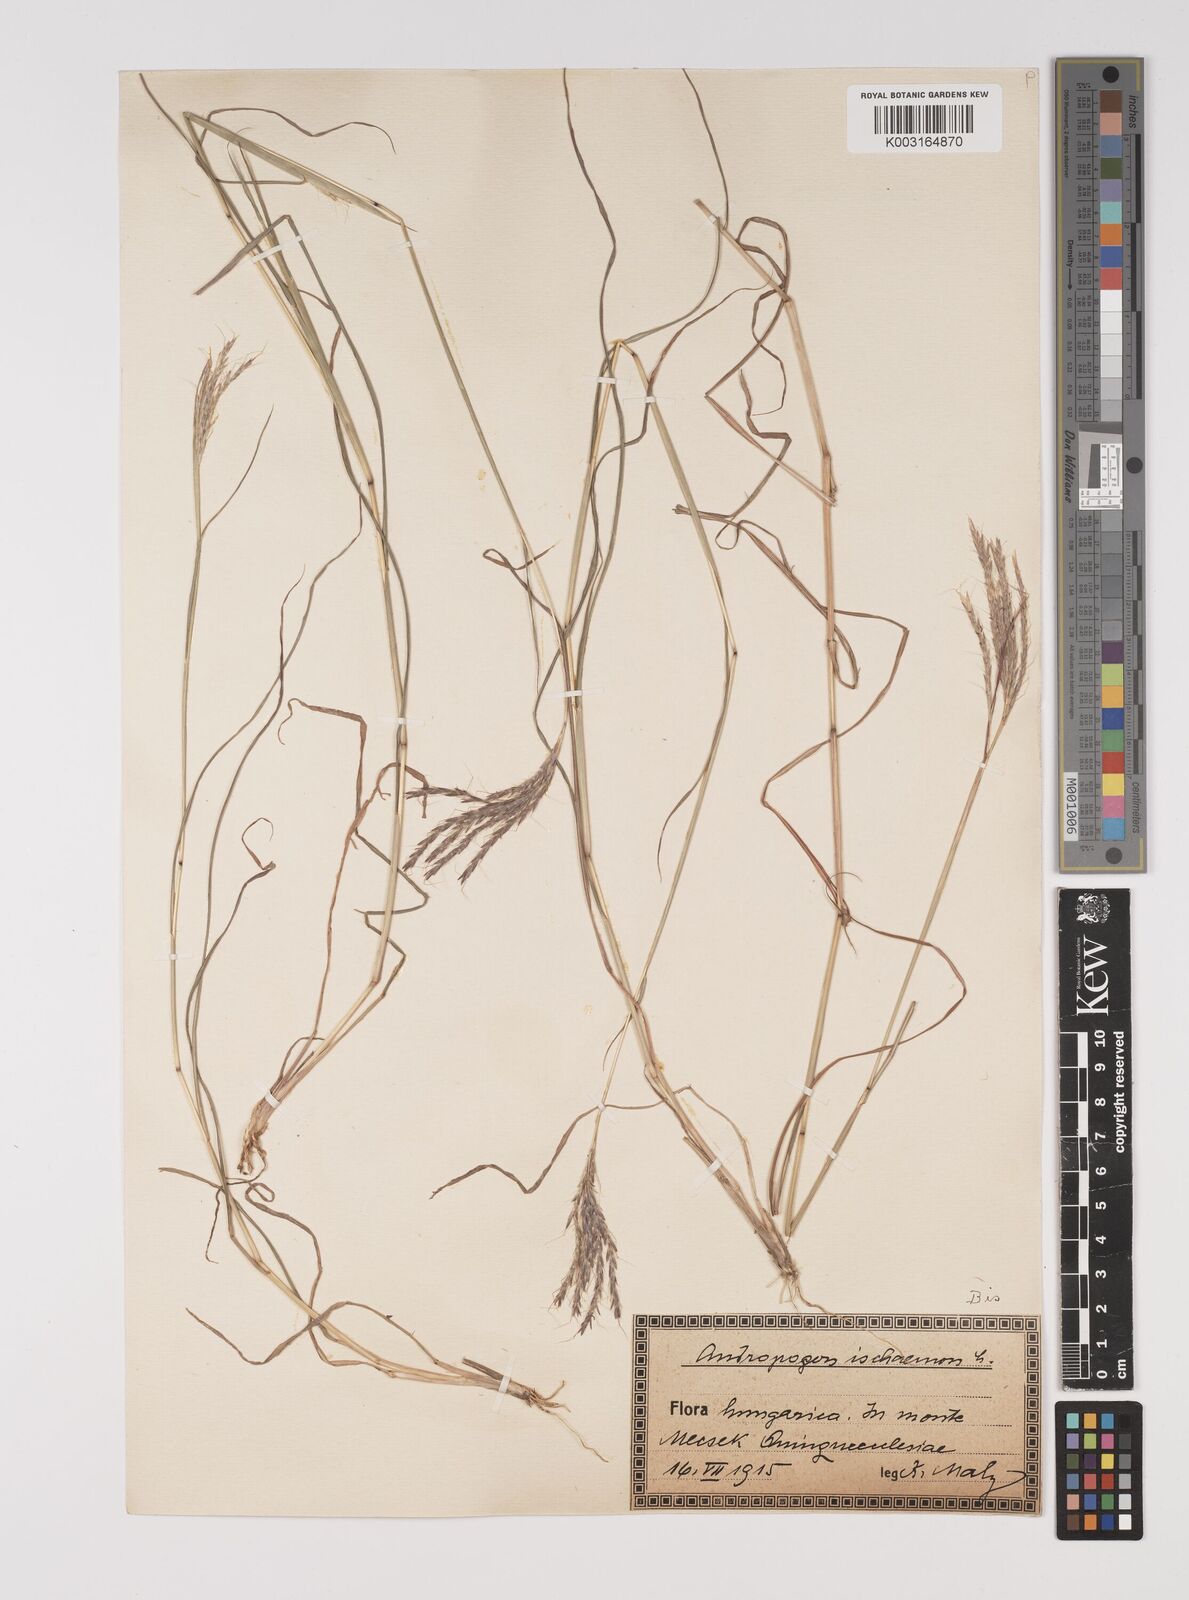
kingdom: Plantae
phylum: Tracheophyta
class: Liliopsida
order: Poales
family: Poaceae
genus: Bothriochloa
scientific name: Bothriochloa ischaemum
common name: Yellow bluestem
